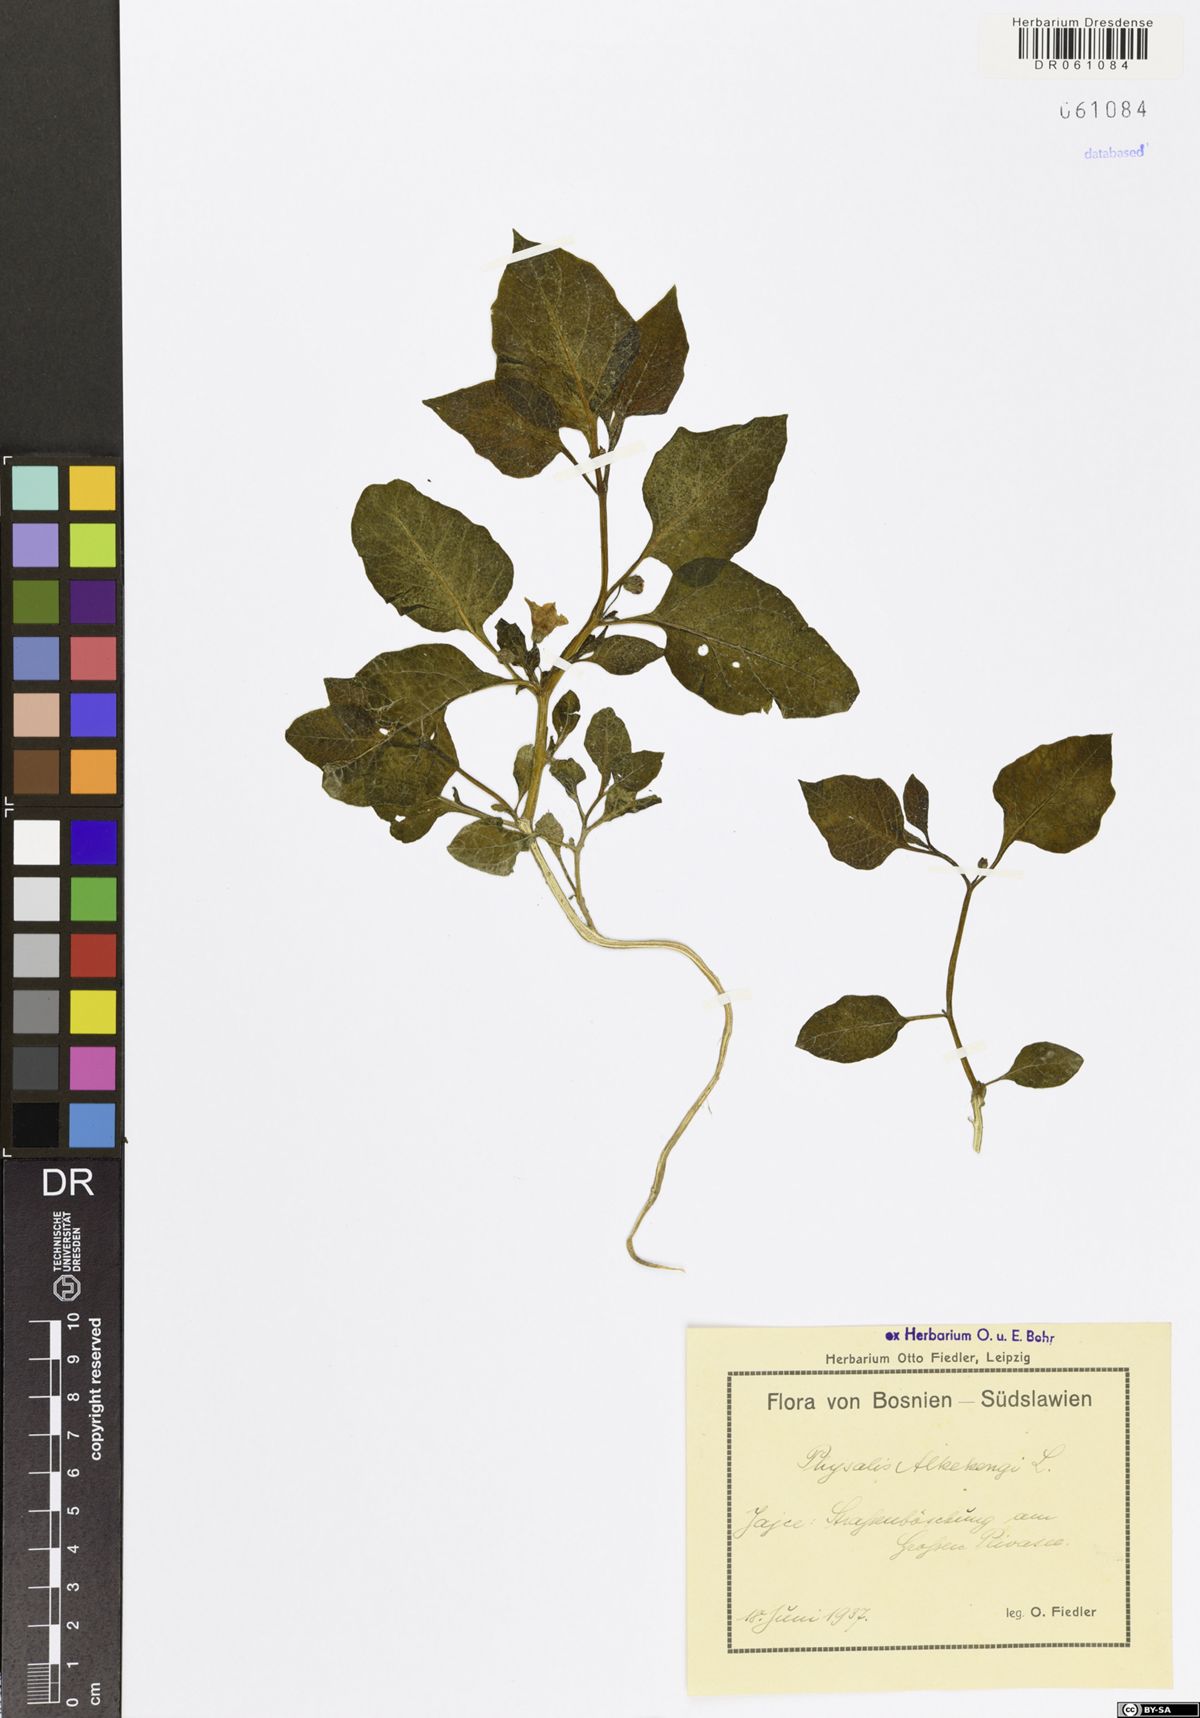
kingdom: Plantae
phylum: Tracheophyta
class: Magnoliopsida
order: Solanales
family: Solanaceae
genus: Alkekengi
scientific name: Alkekengi officinarum
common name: Japanese-lantern
